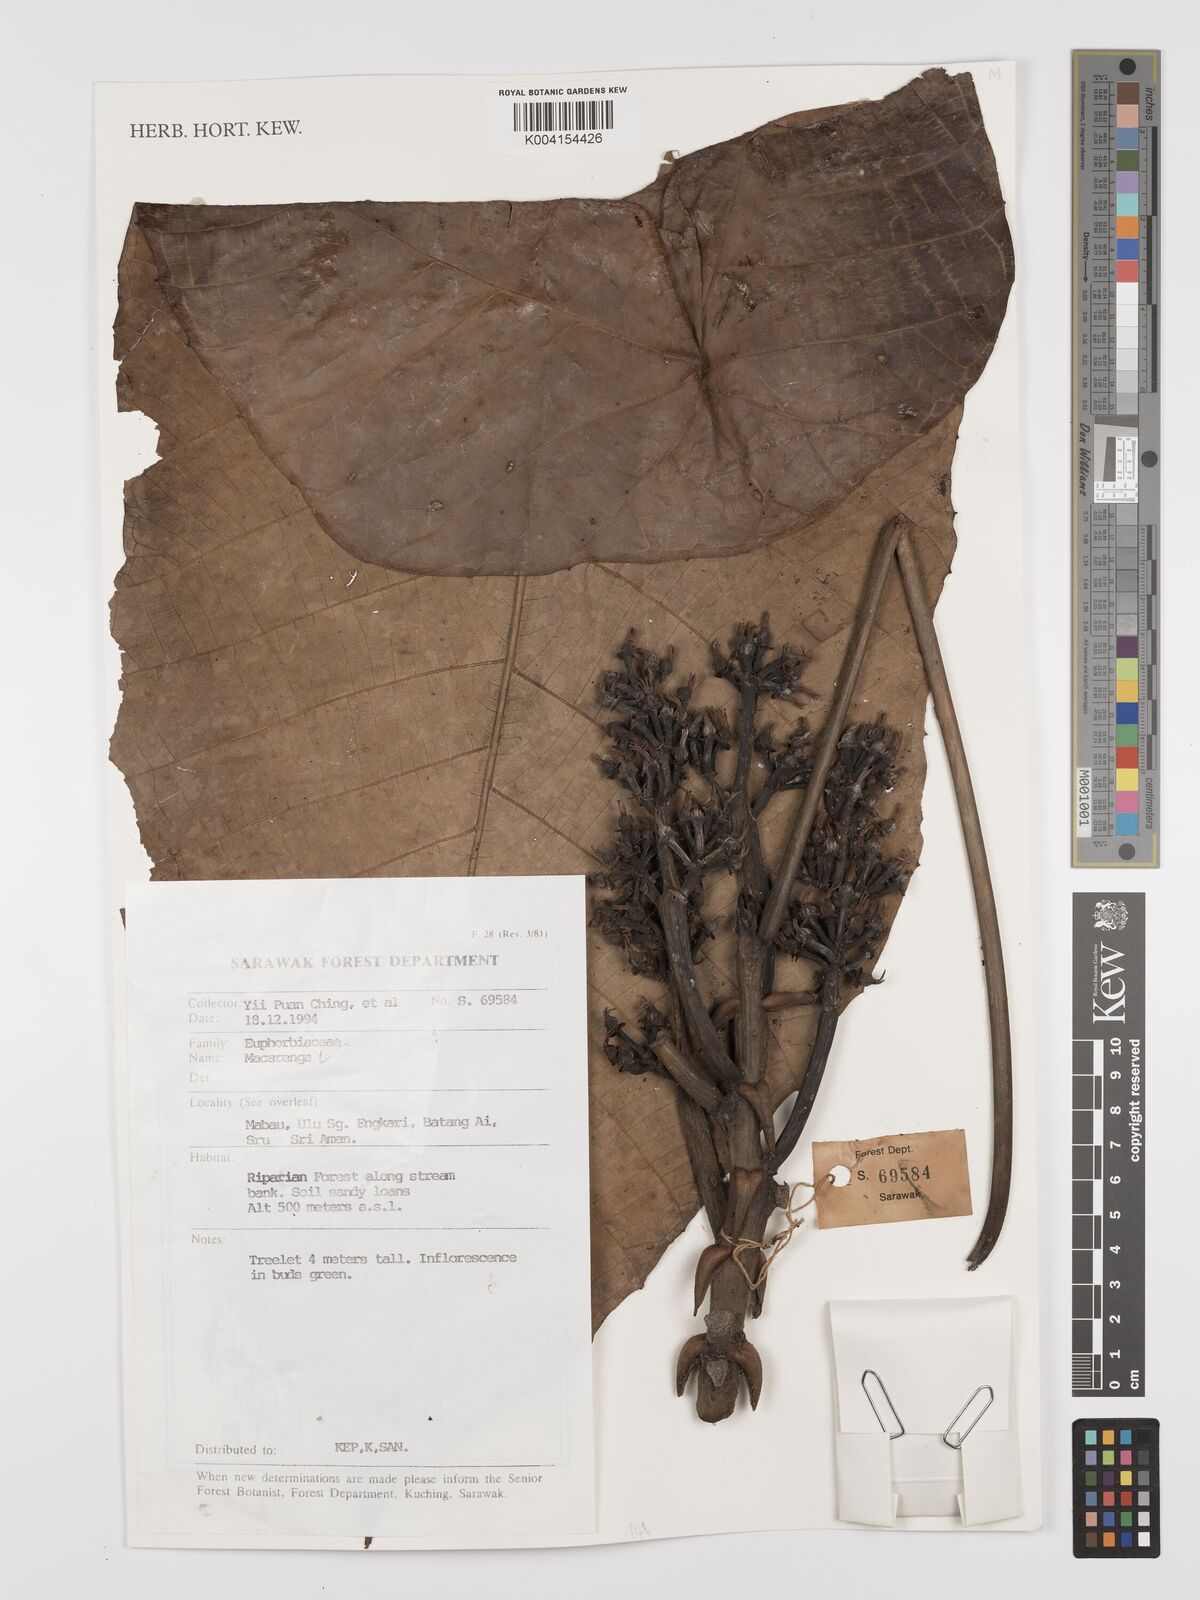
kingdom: Plantae
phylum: Tracheophyta
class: Magnoliopsida
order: Malpighiales
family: Euphorbiaceae
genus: Macaranga
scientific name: Macaranga
